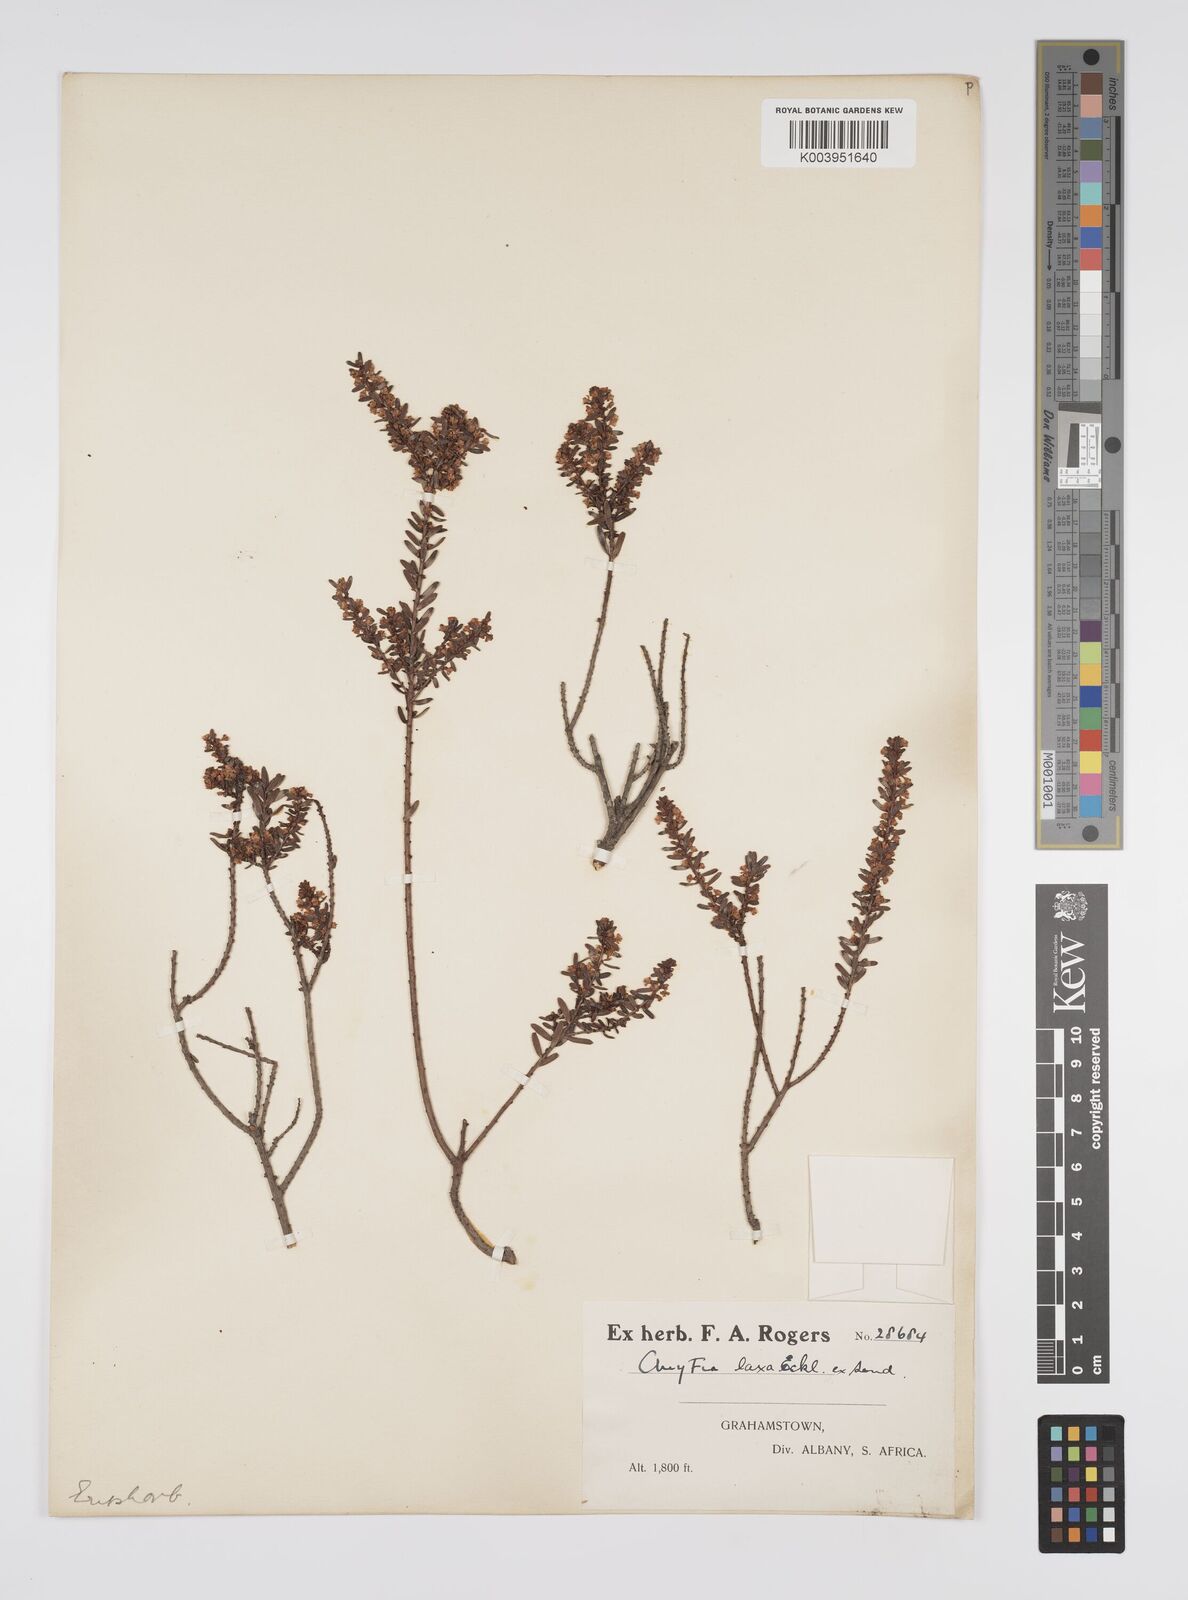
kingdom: Plantae
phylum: Tracheophyta
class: Magnoliopsida
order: Malpighiales
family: Peraceae
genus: Clutia
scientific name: Clutia laxa
